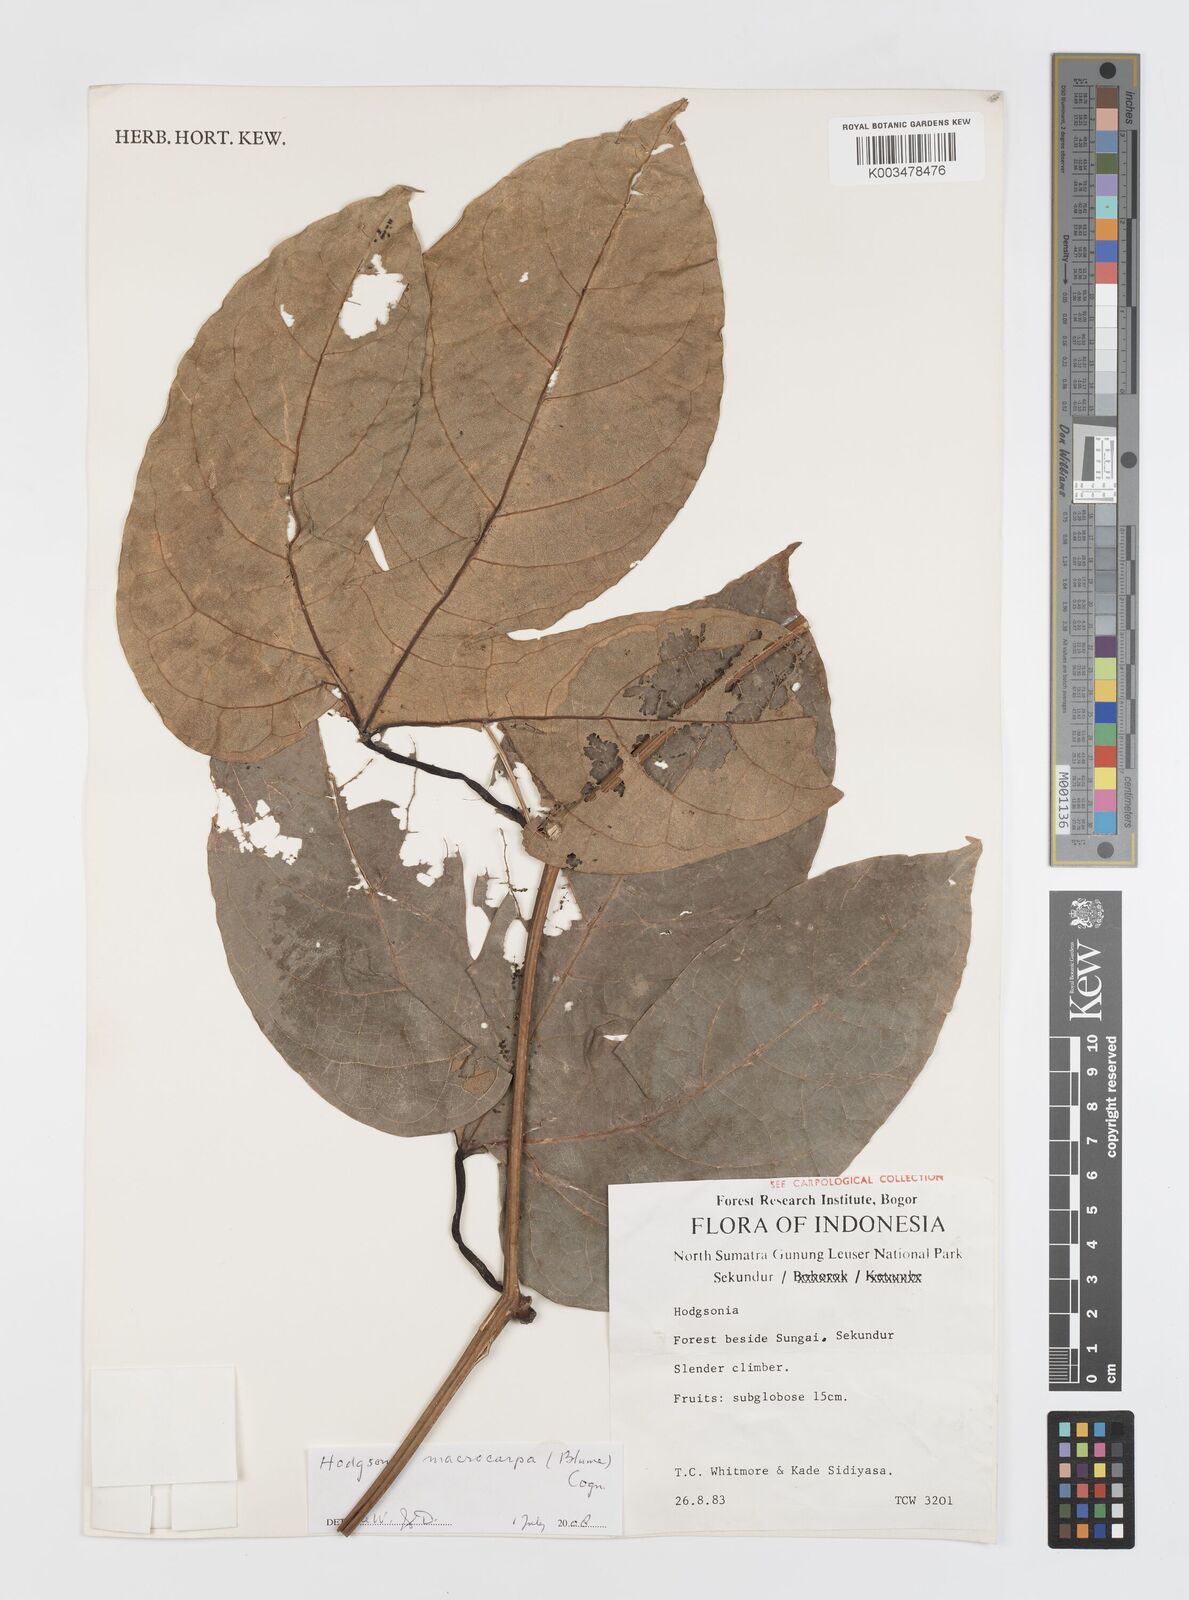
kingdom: Plantae
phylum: Tracheophyta
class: Magnoliopsida
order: Cucurbitales
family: Cucurbitaceae
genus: Hodgsonia
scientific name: Hodgsonia macrocarpa
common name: Chinese lardfruit
